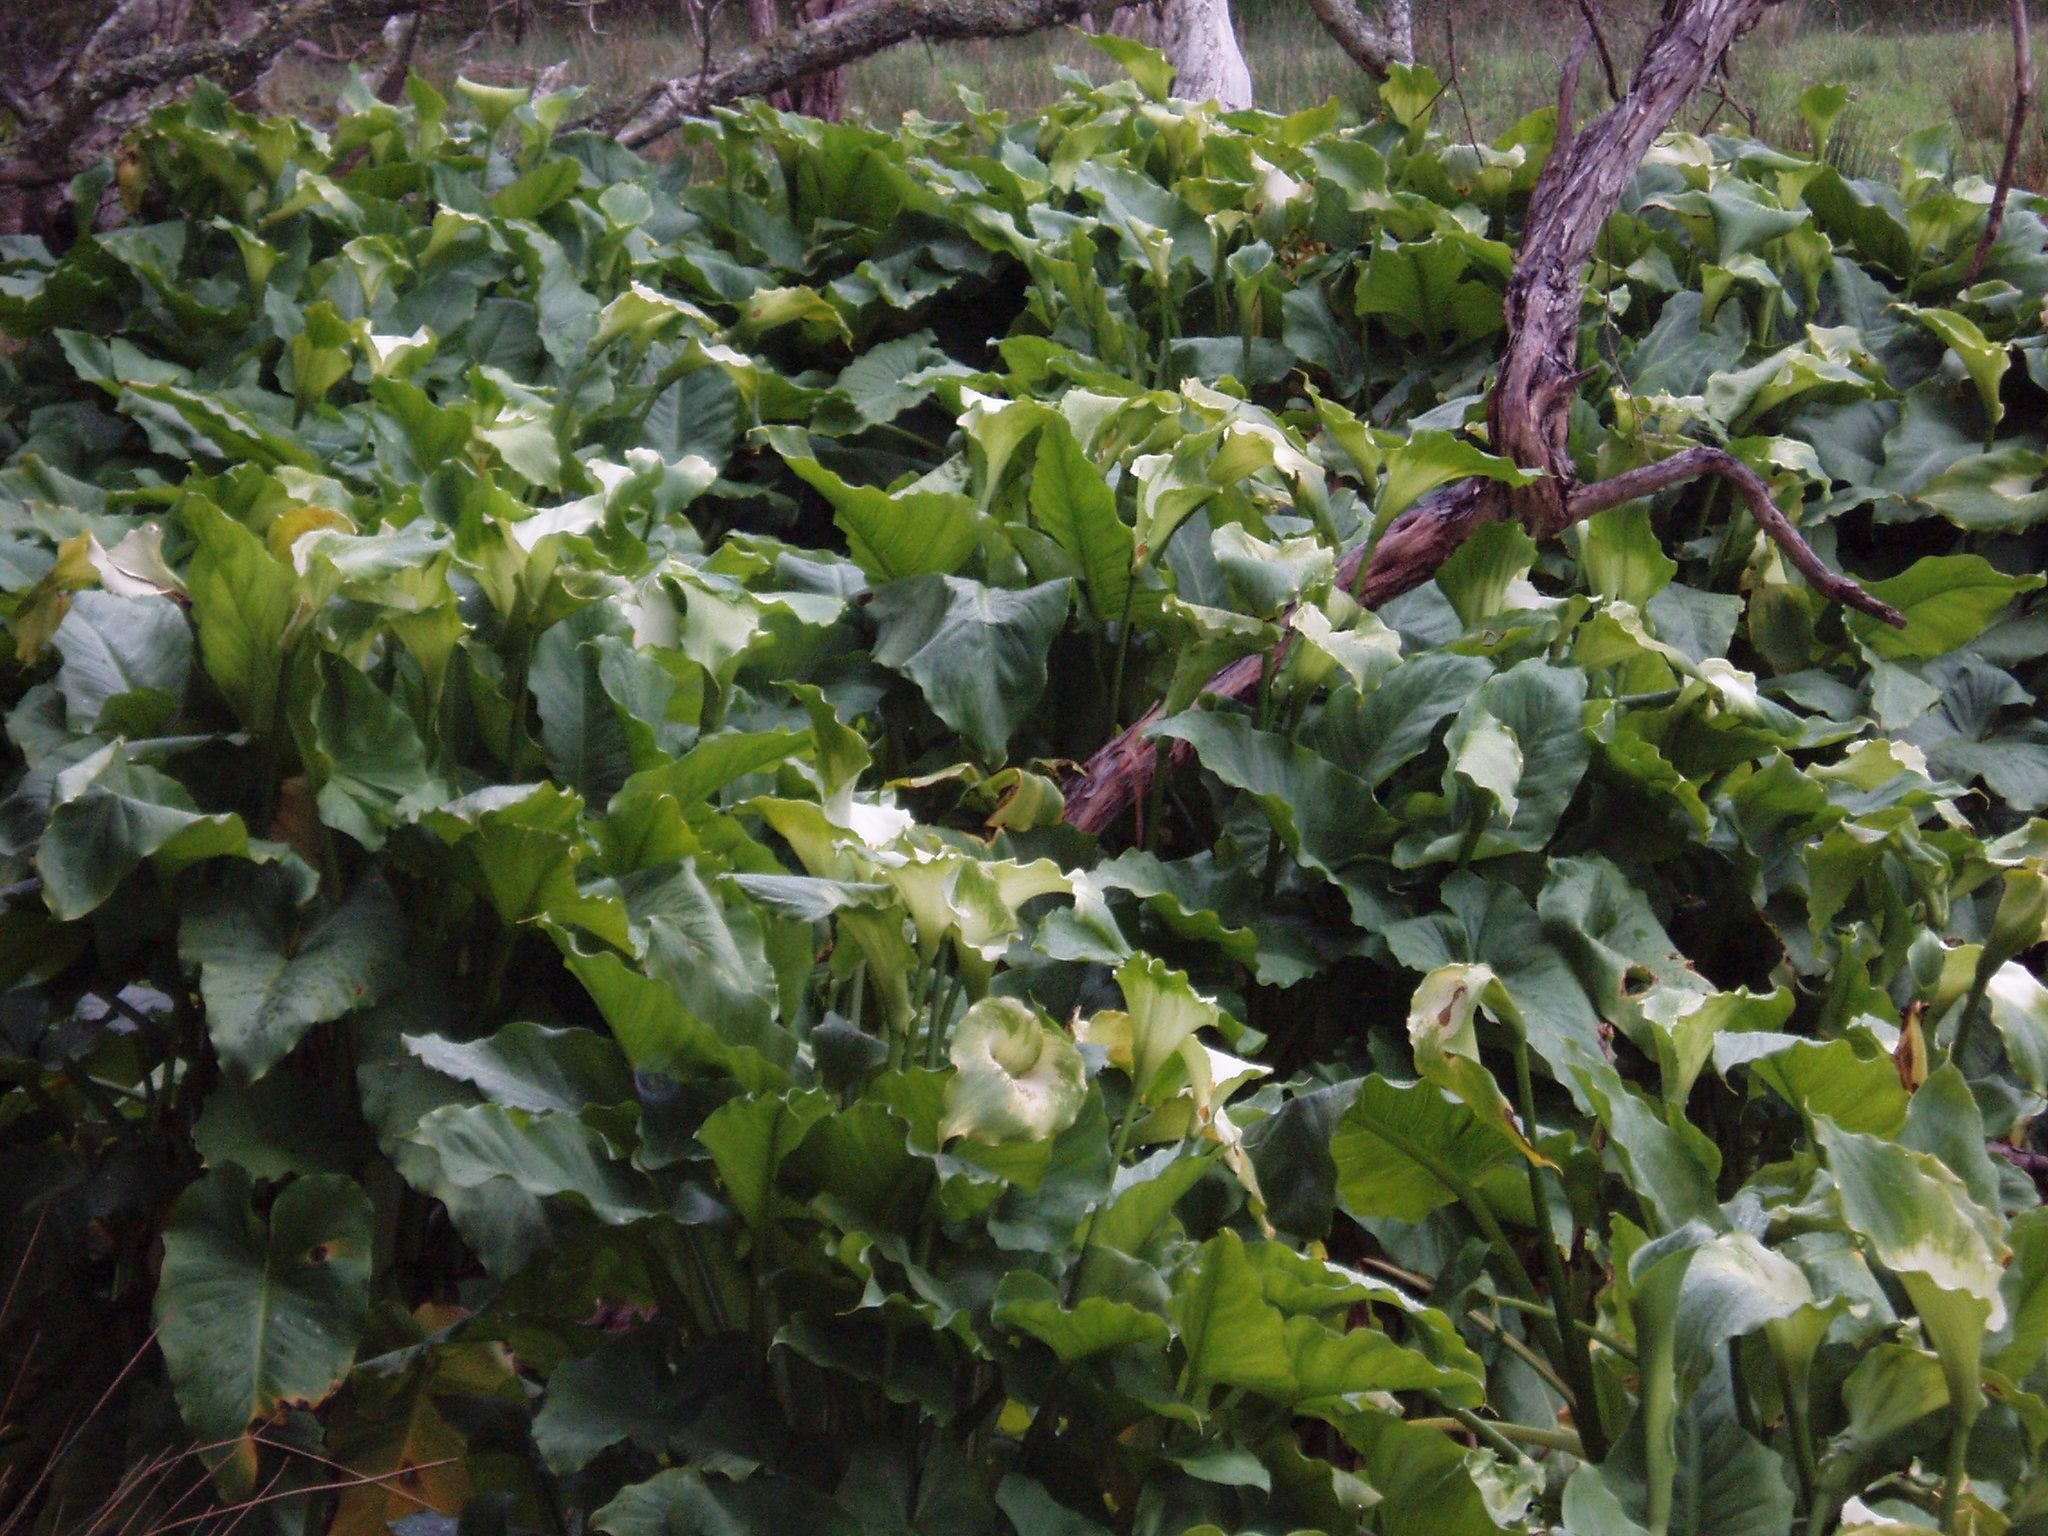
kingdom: Plantae
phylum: Tracheophyta
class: Liliopsida
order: Alismatales
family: Araceae
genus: Zantedeschia
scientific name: Zantedeschia aethiopica
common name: Altar-lily
